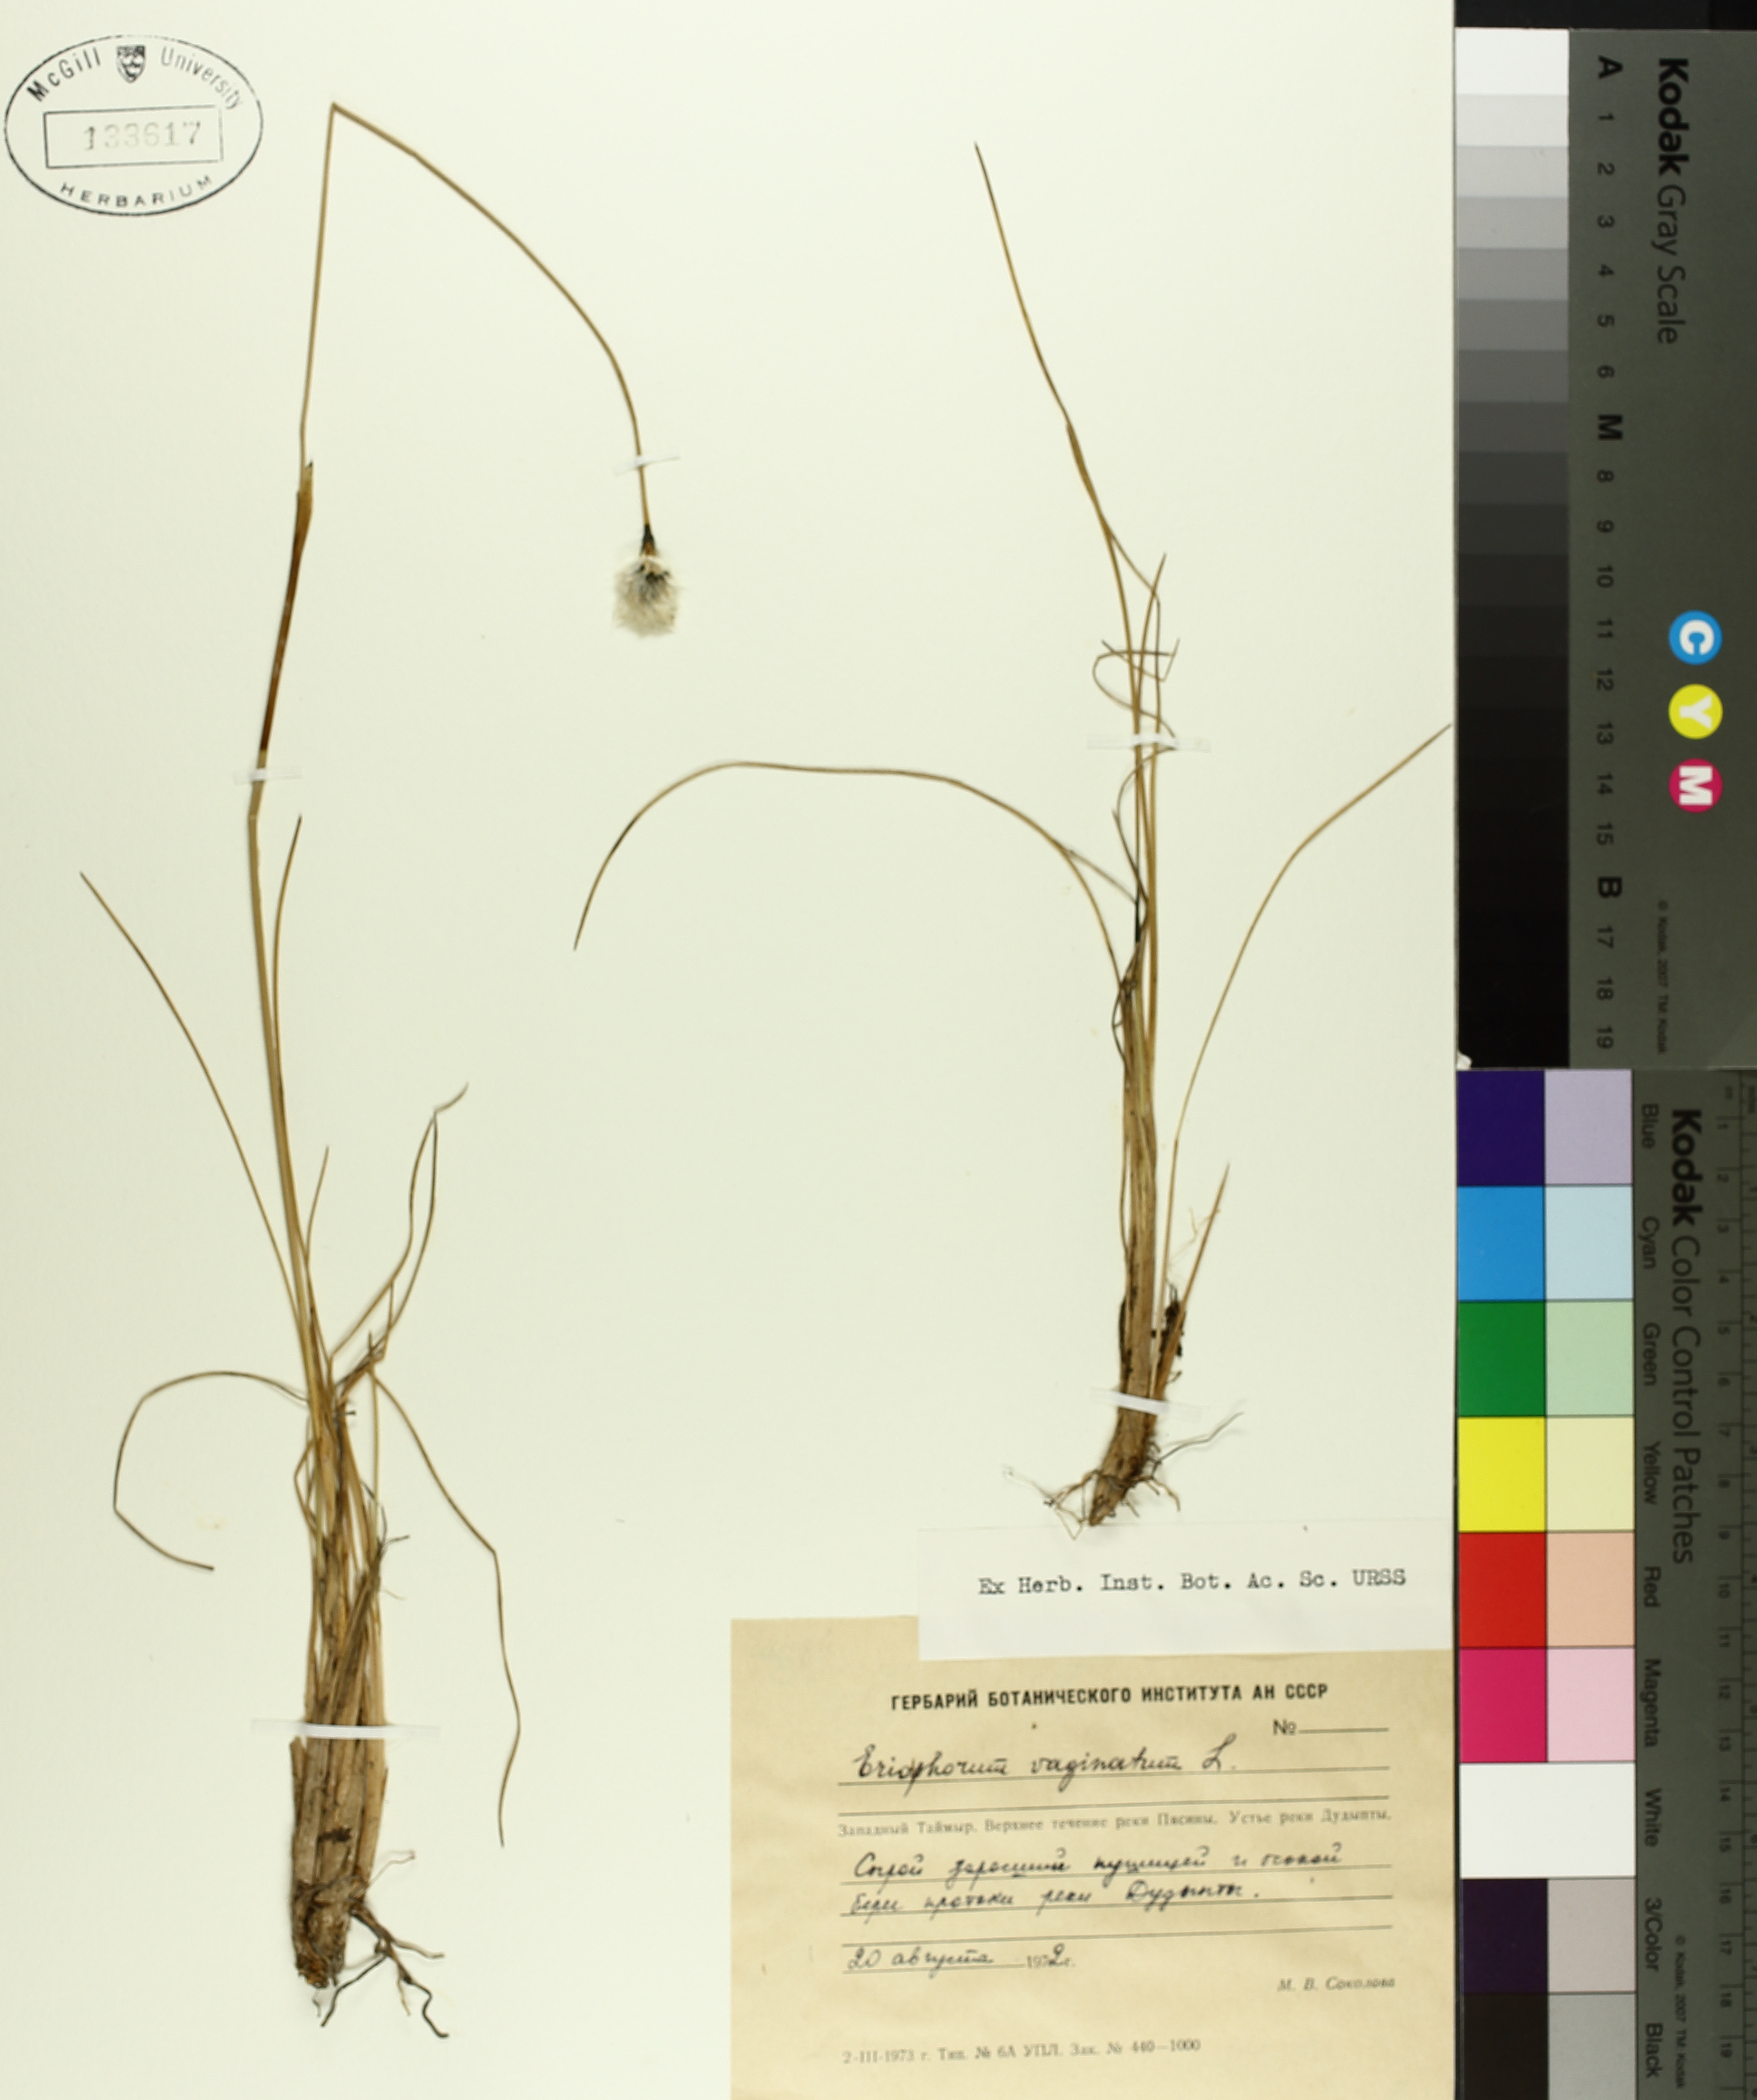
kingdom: Plantae
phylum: Tracheophyta
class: Liliopsida
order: Poales
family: Cyperaceae
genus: Eriophorum
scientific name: Eriophorum vaginatum
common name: Hare's-tail cottongrass
